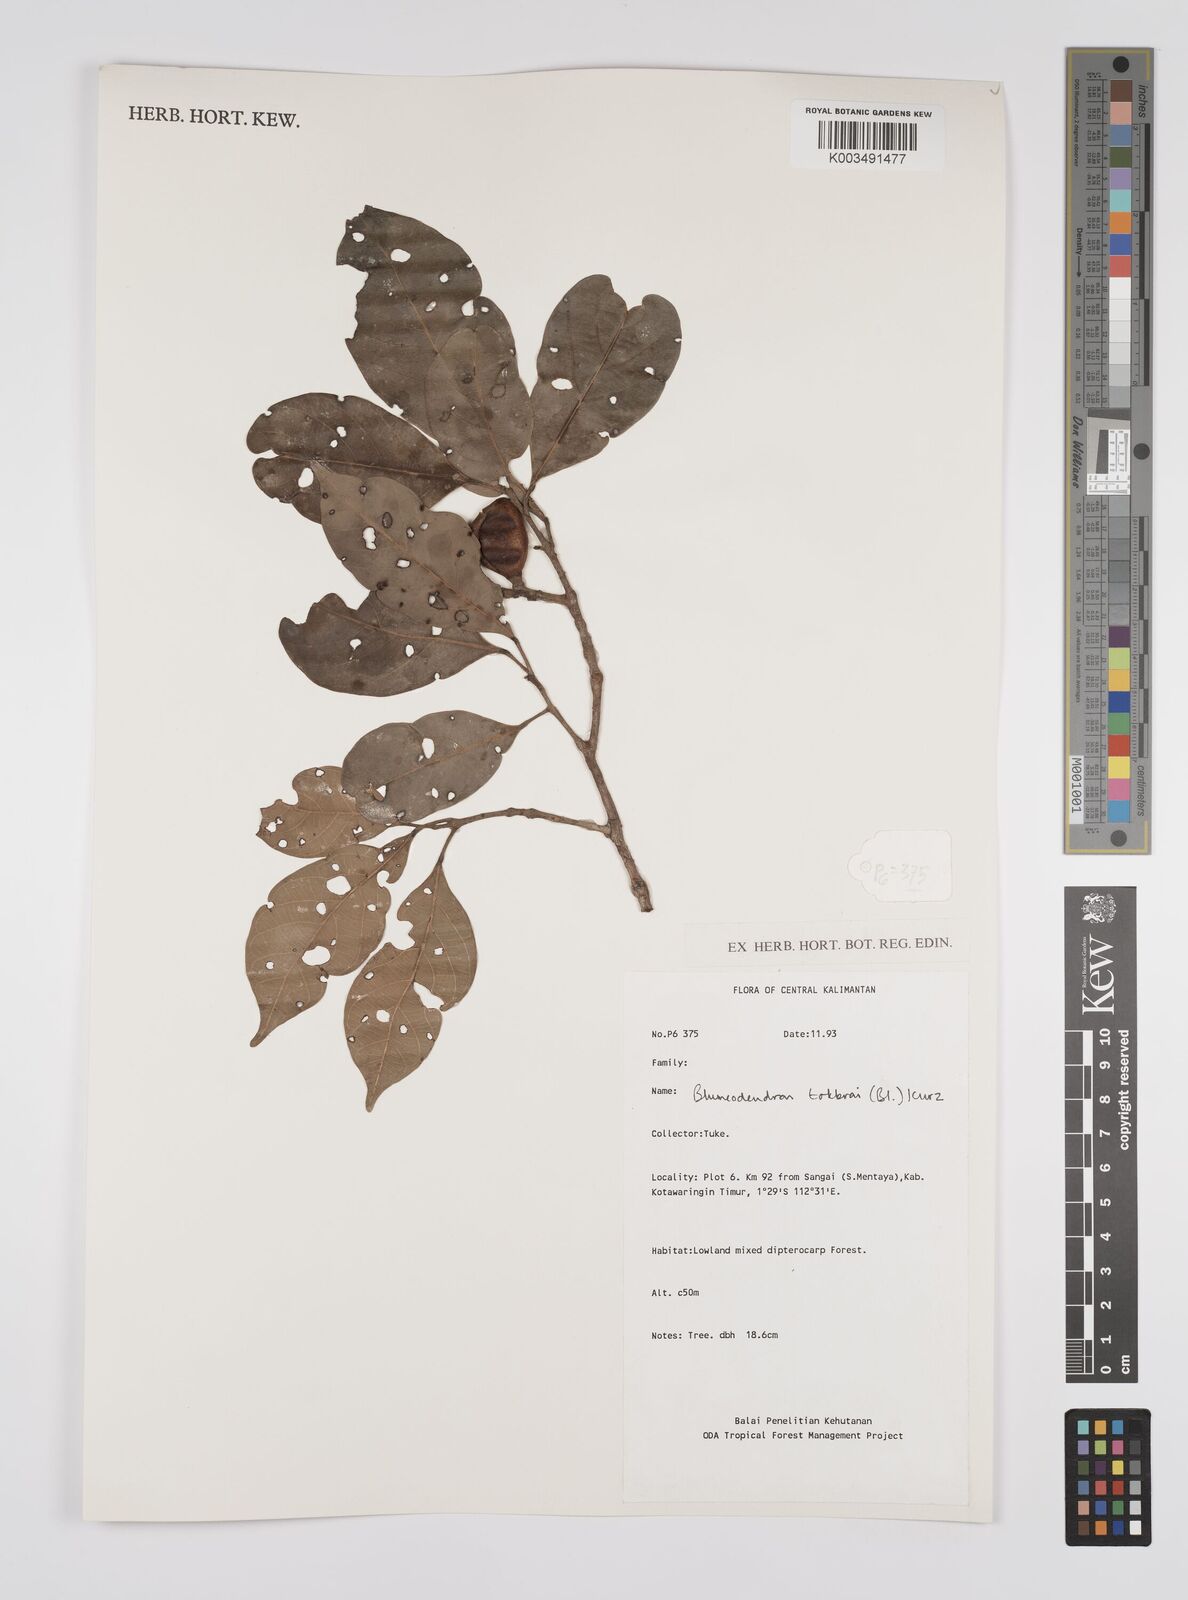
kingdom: Plantae
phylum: Tracheophyta
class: Magnoliopsida
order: Malpighiales
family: Euphorbiaceae
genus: Blumeodendron
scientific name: Blumeodendron tokbrai
